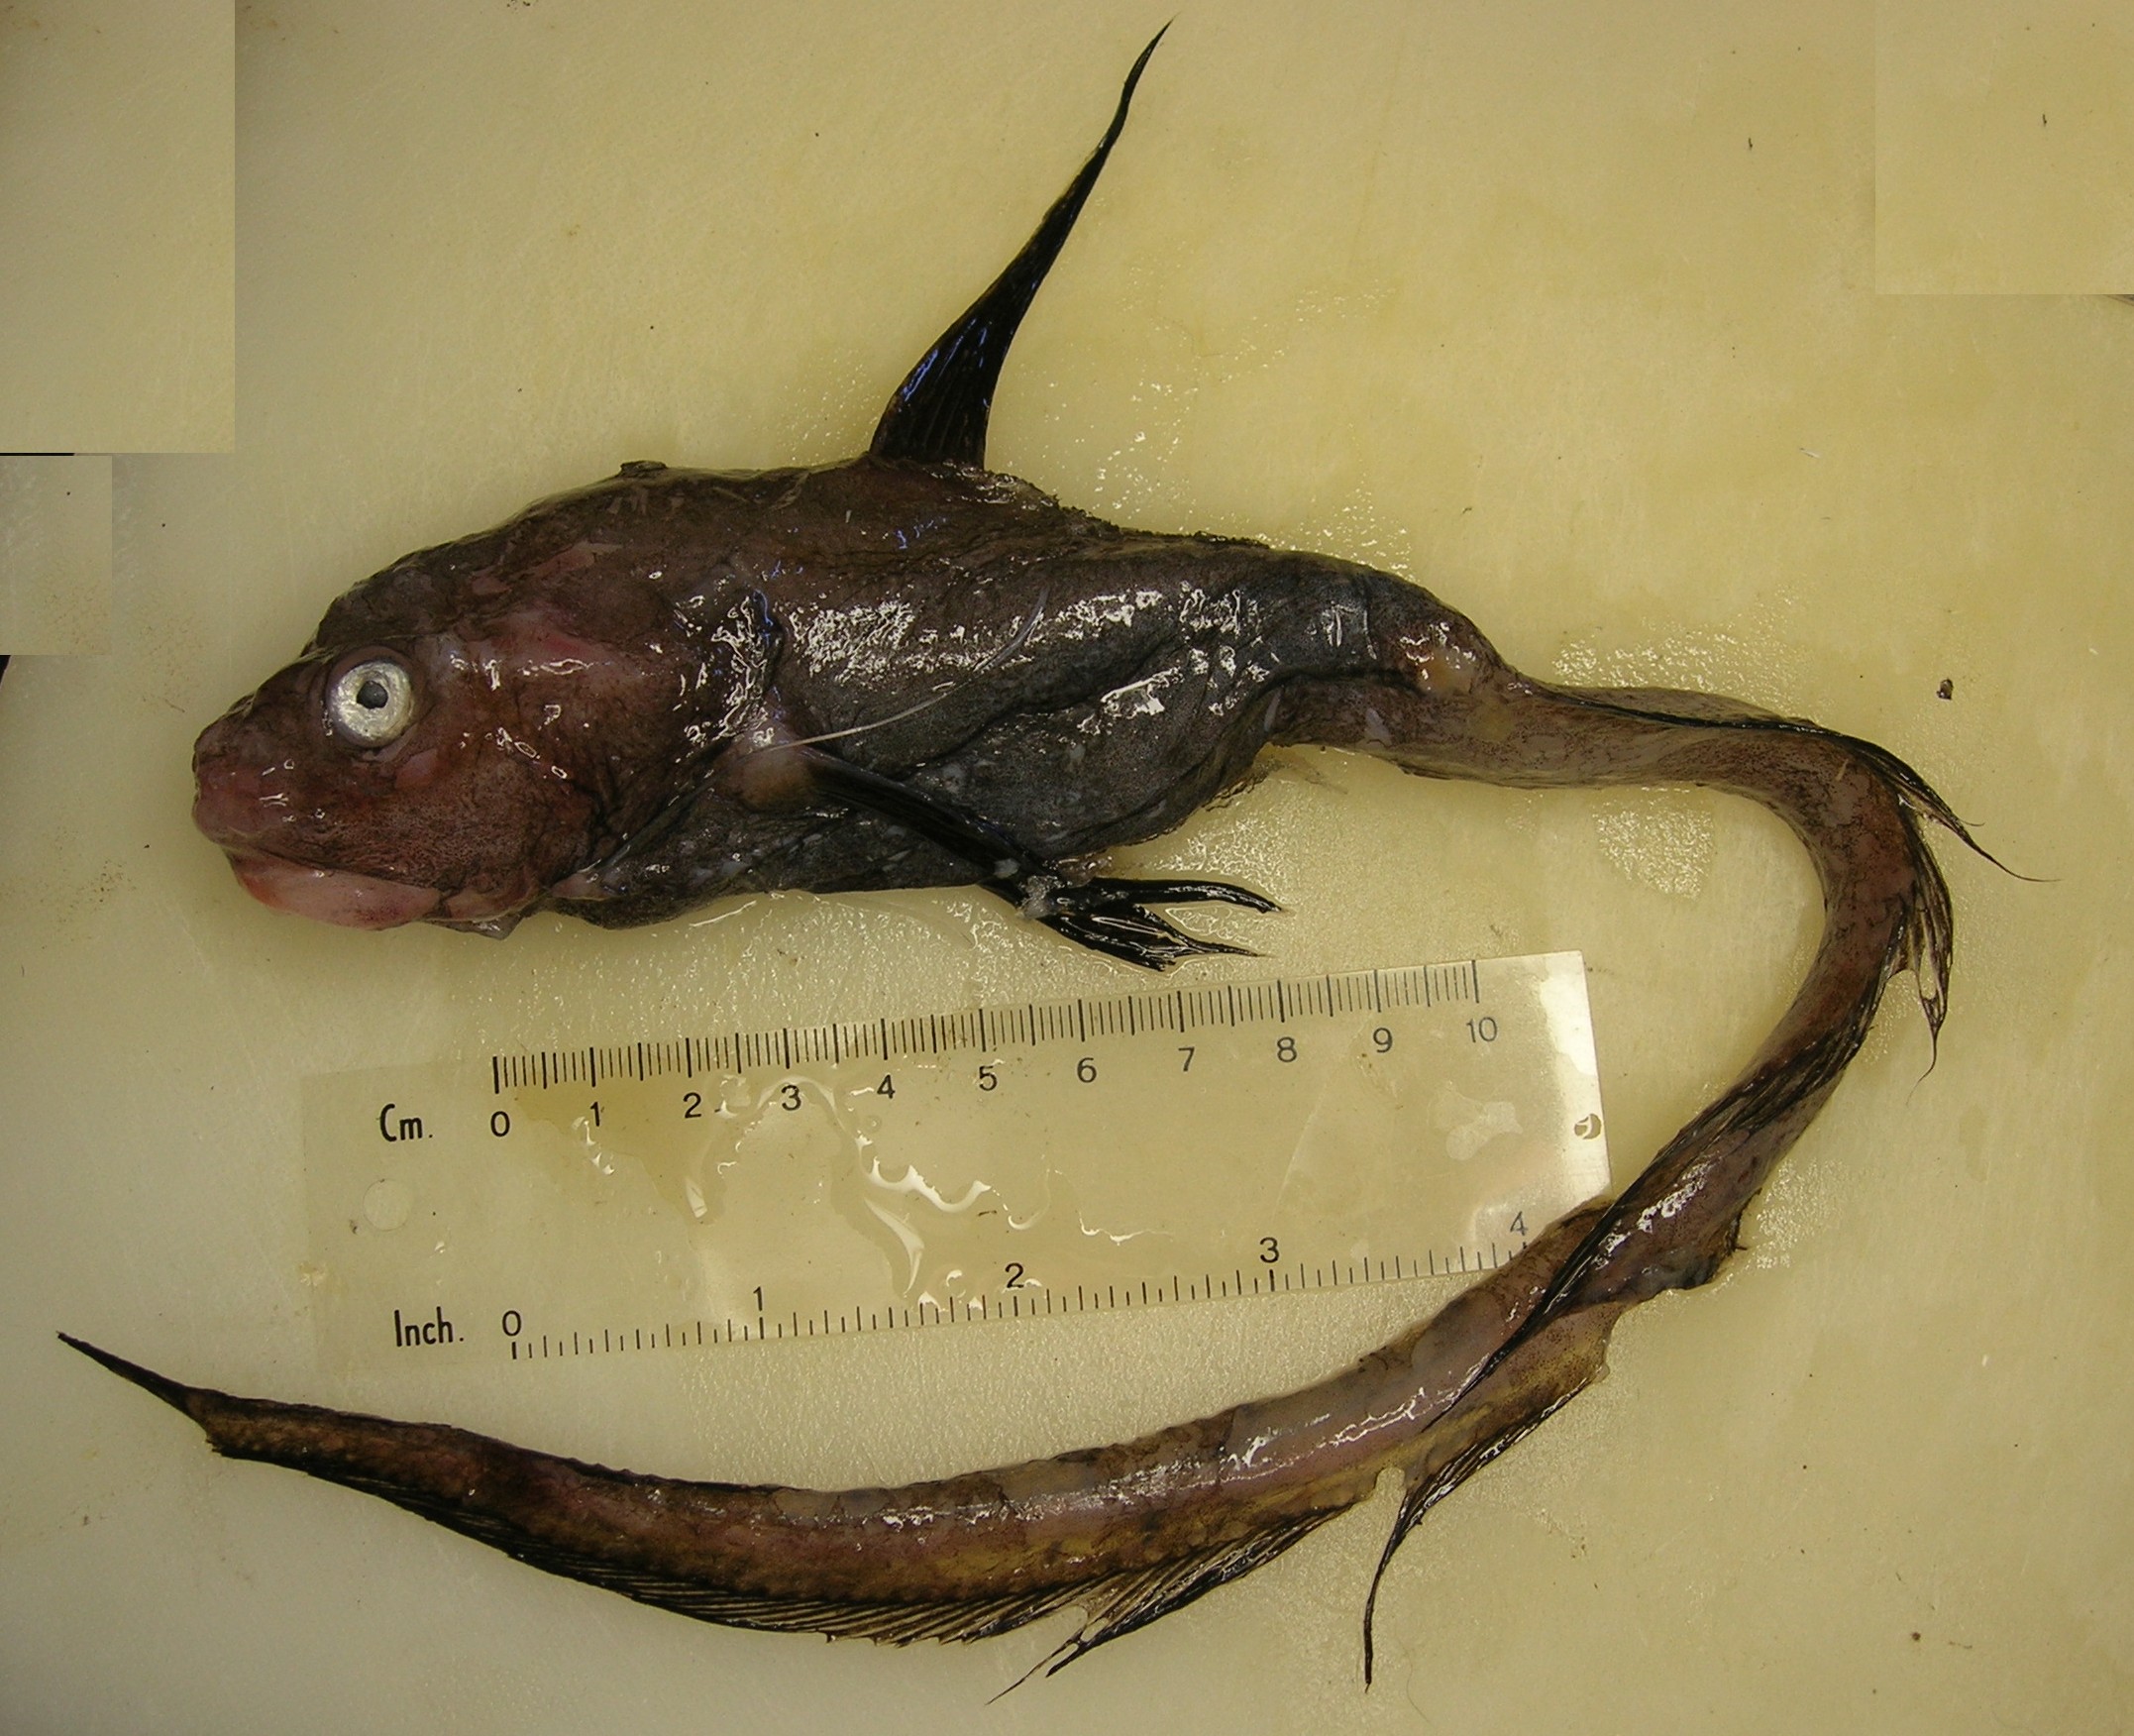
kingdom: Animalia
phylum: Chordata
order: Ateleopodiformes
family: Ateleopodidae
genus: Ateleopus
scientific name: Ateleopus natalensis
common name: Jelly-head fish
